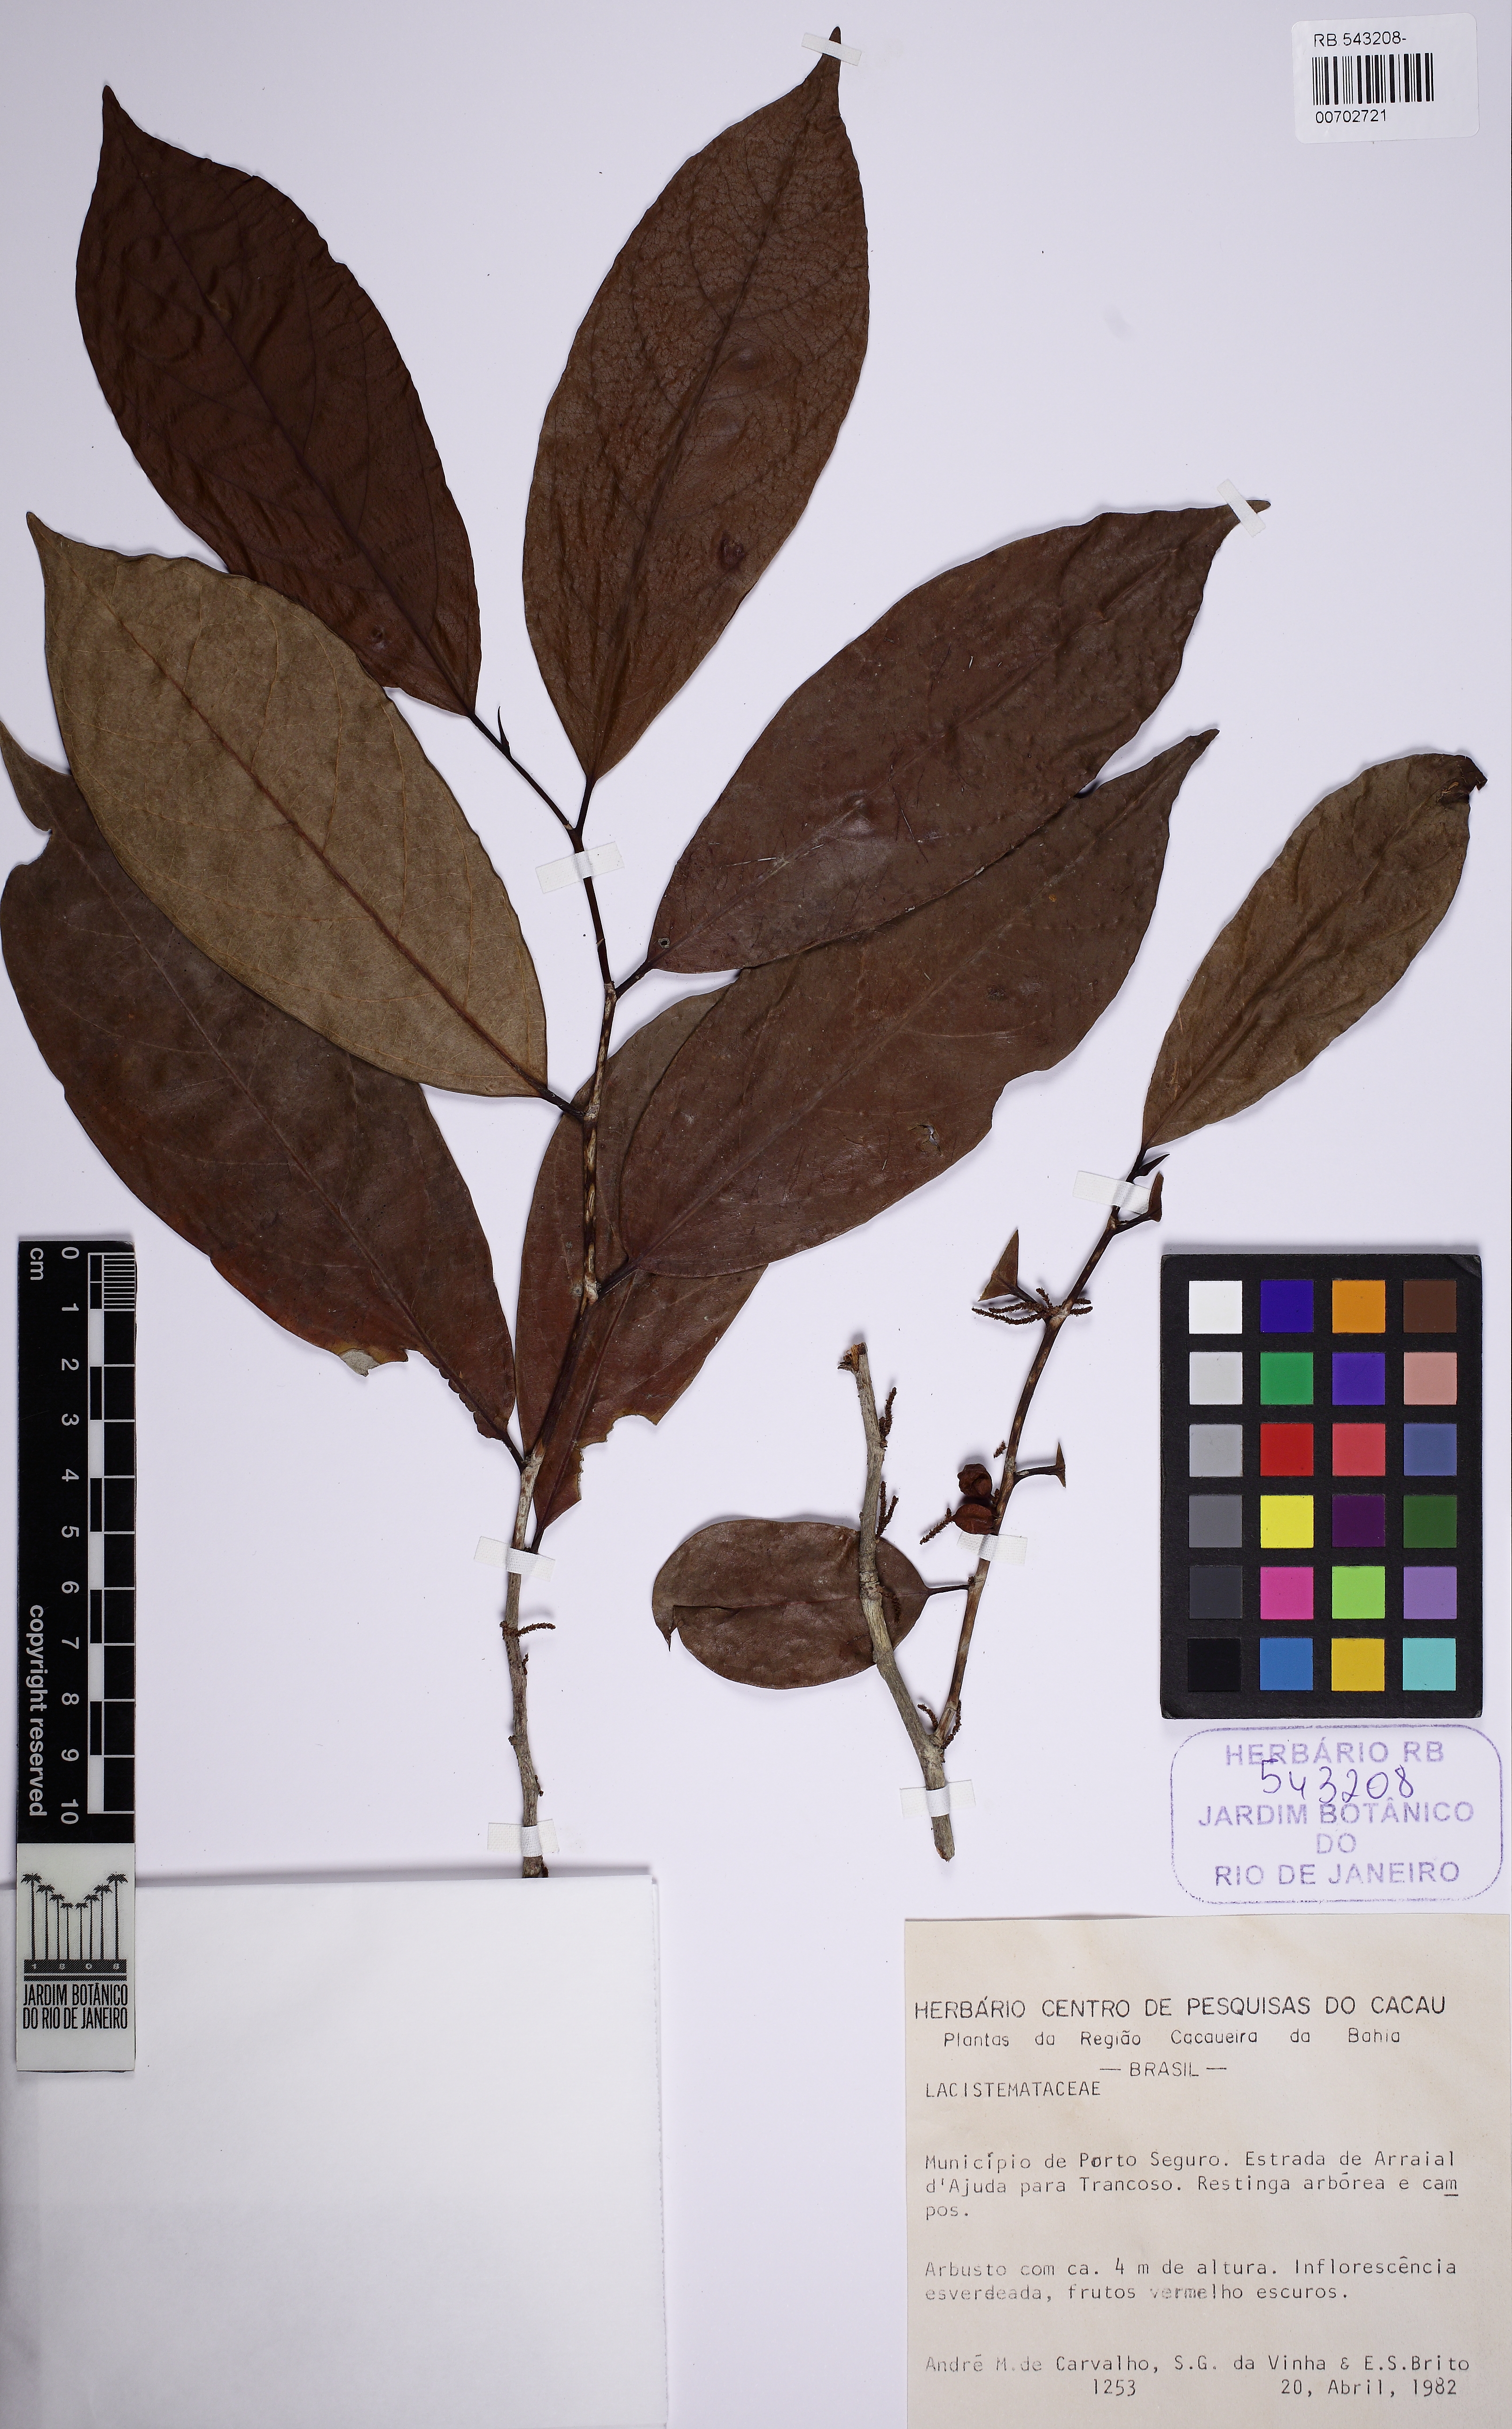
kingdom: Plantae
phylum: Tracheophyta
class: Magnoliopsida
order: Malpighiales
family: Lacistemataceae
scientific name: Lacistemataceae
